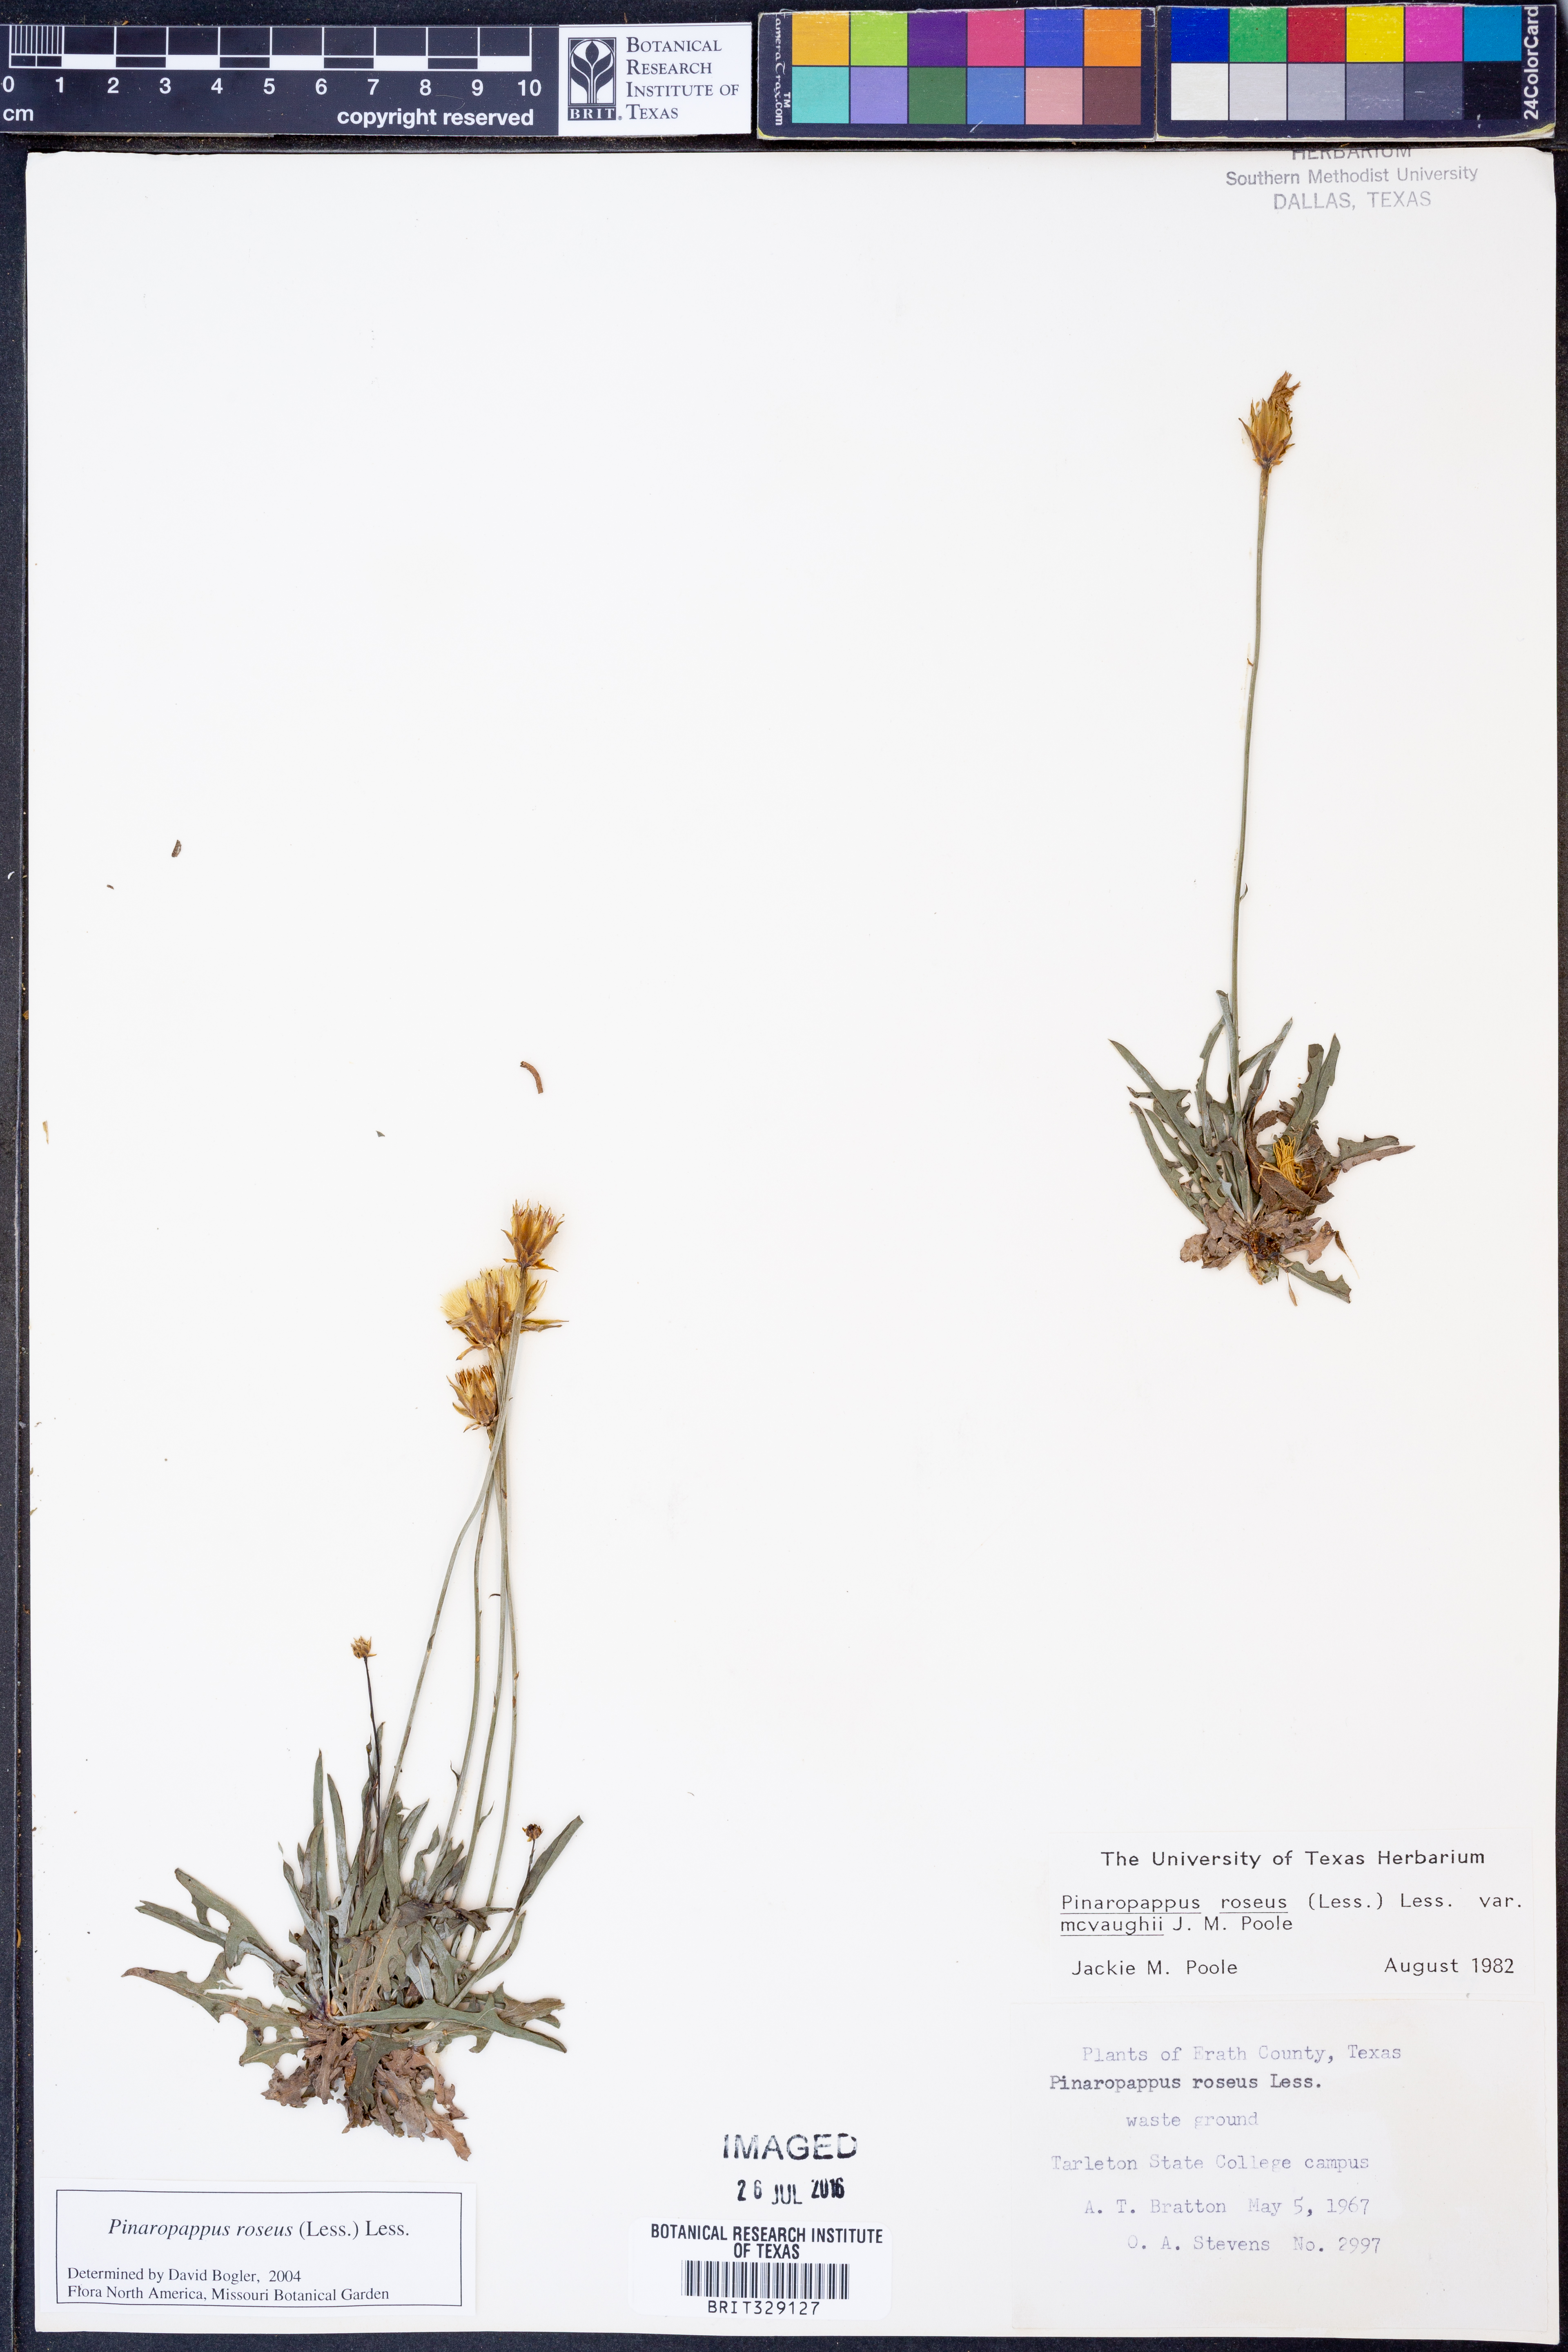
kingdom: Plantae
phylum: Tracheophyta
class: Magnoliopsida
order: Asterales
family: Asteraceae
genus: Pinaropappus
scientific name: Pinaropappus roseus
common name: Rock-lettuce
